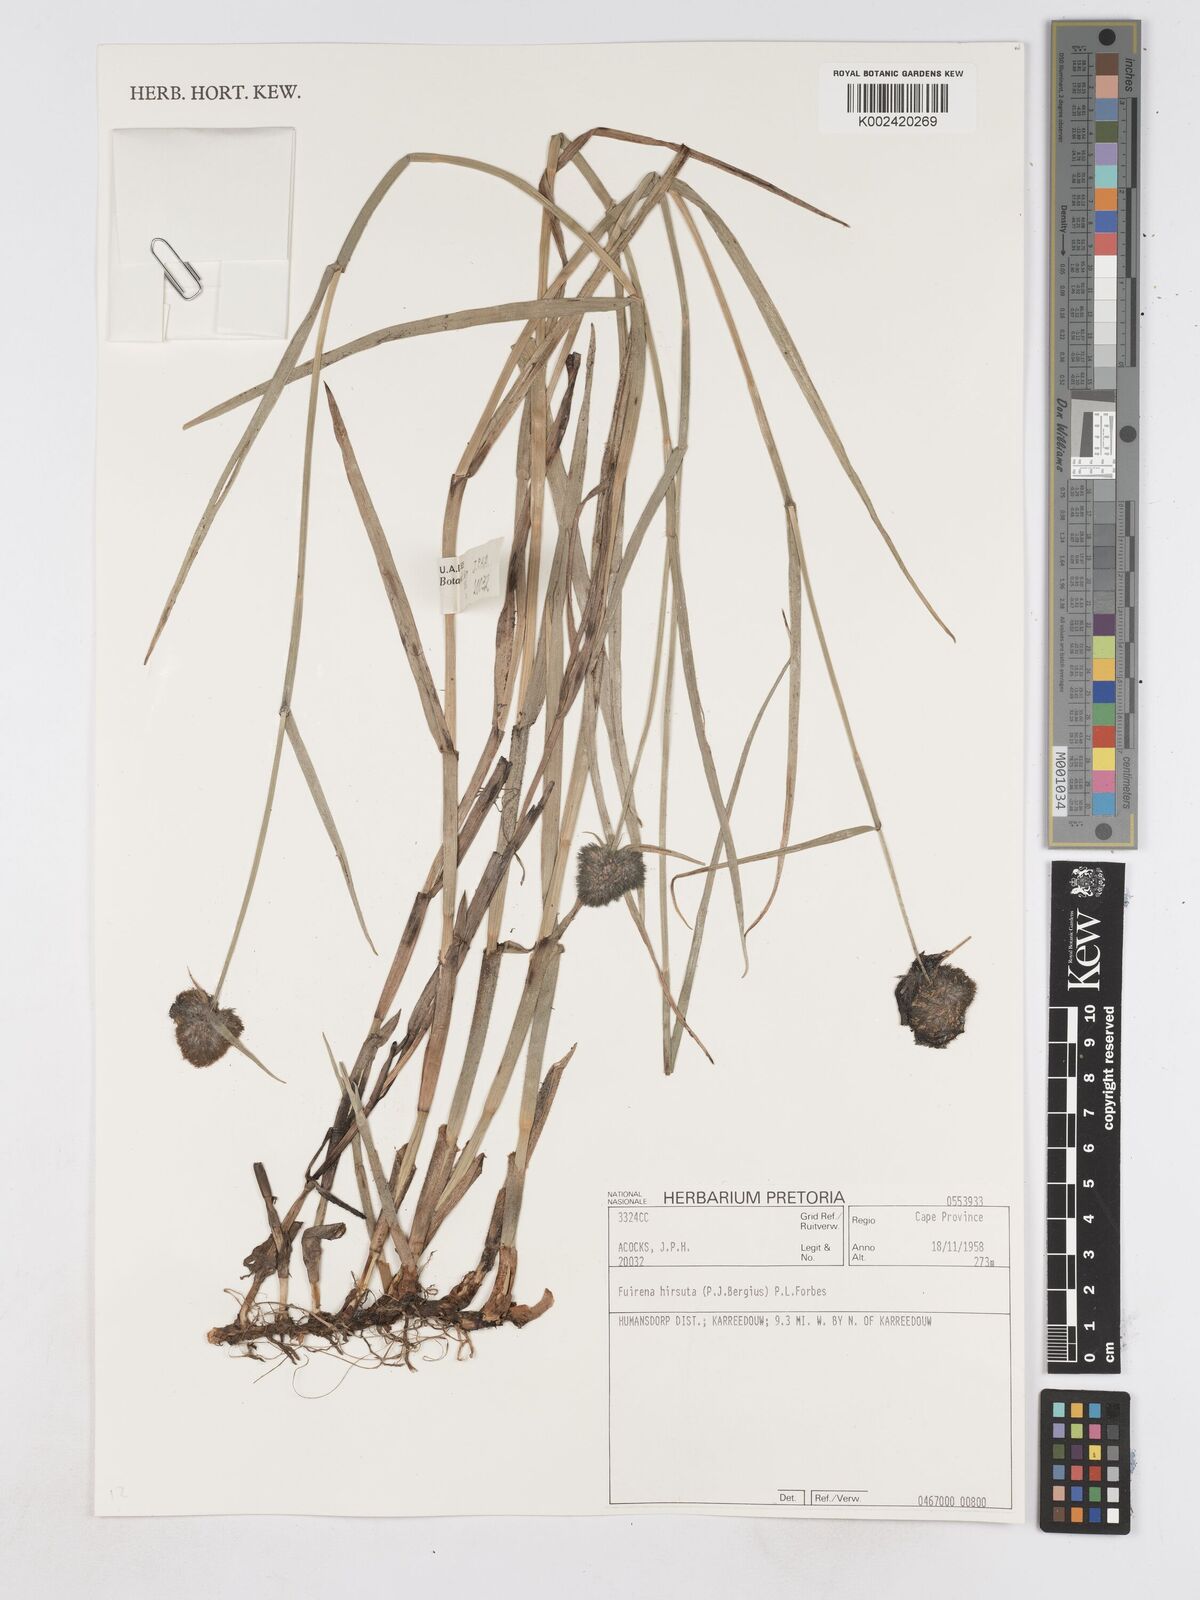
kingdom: Plantae
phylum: Tracheophyta
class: Liliopsida
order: Poales
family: Cyperaceae
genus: Fuirena
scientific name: Fuirena hirsuta
